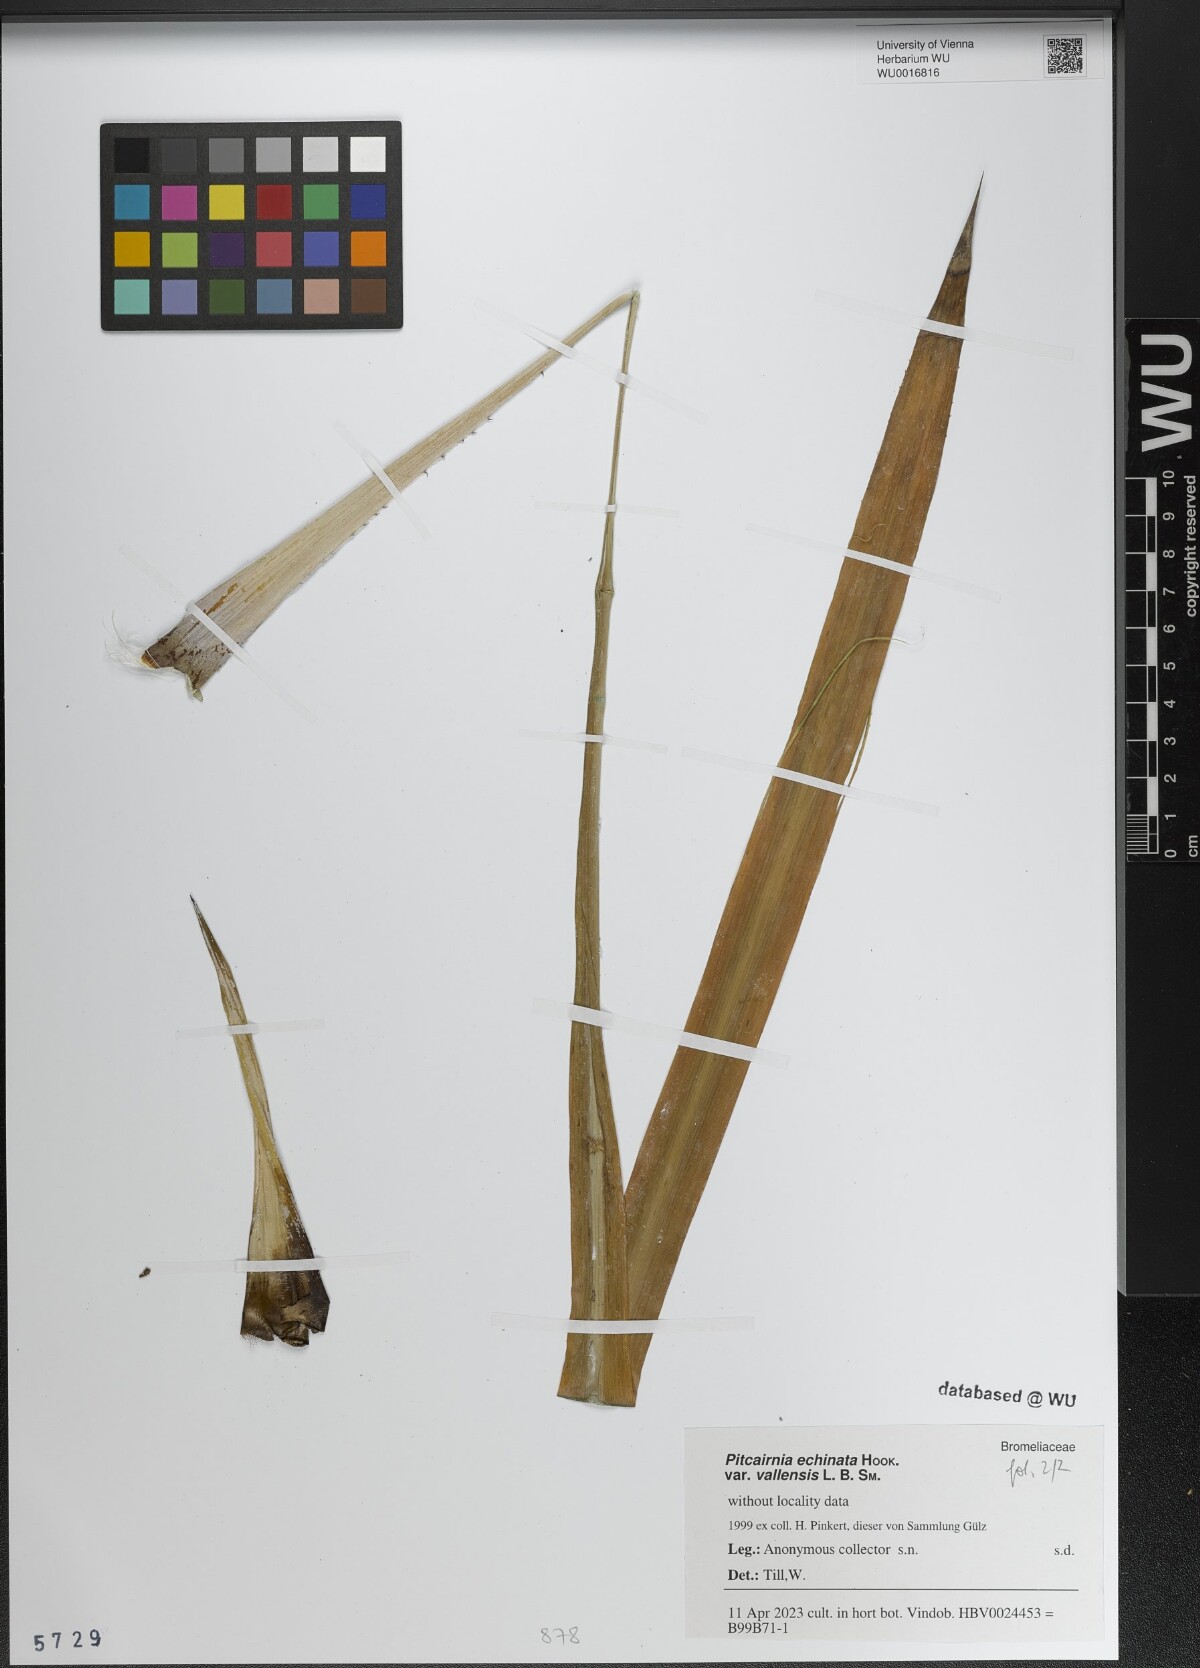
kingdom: Plantae
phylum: Tracheophyta
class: Liliopsida
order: Poales
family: Bromeliaceae
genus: Pitcairnia
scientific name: Pitcairnia echinata
